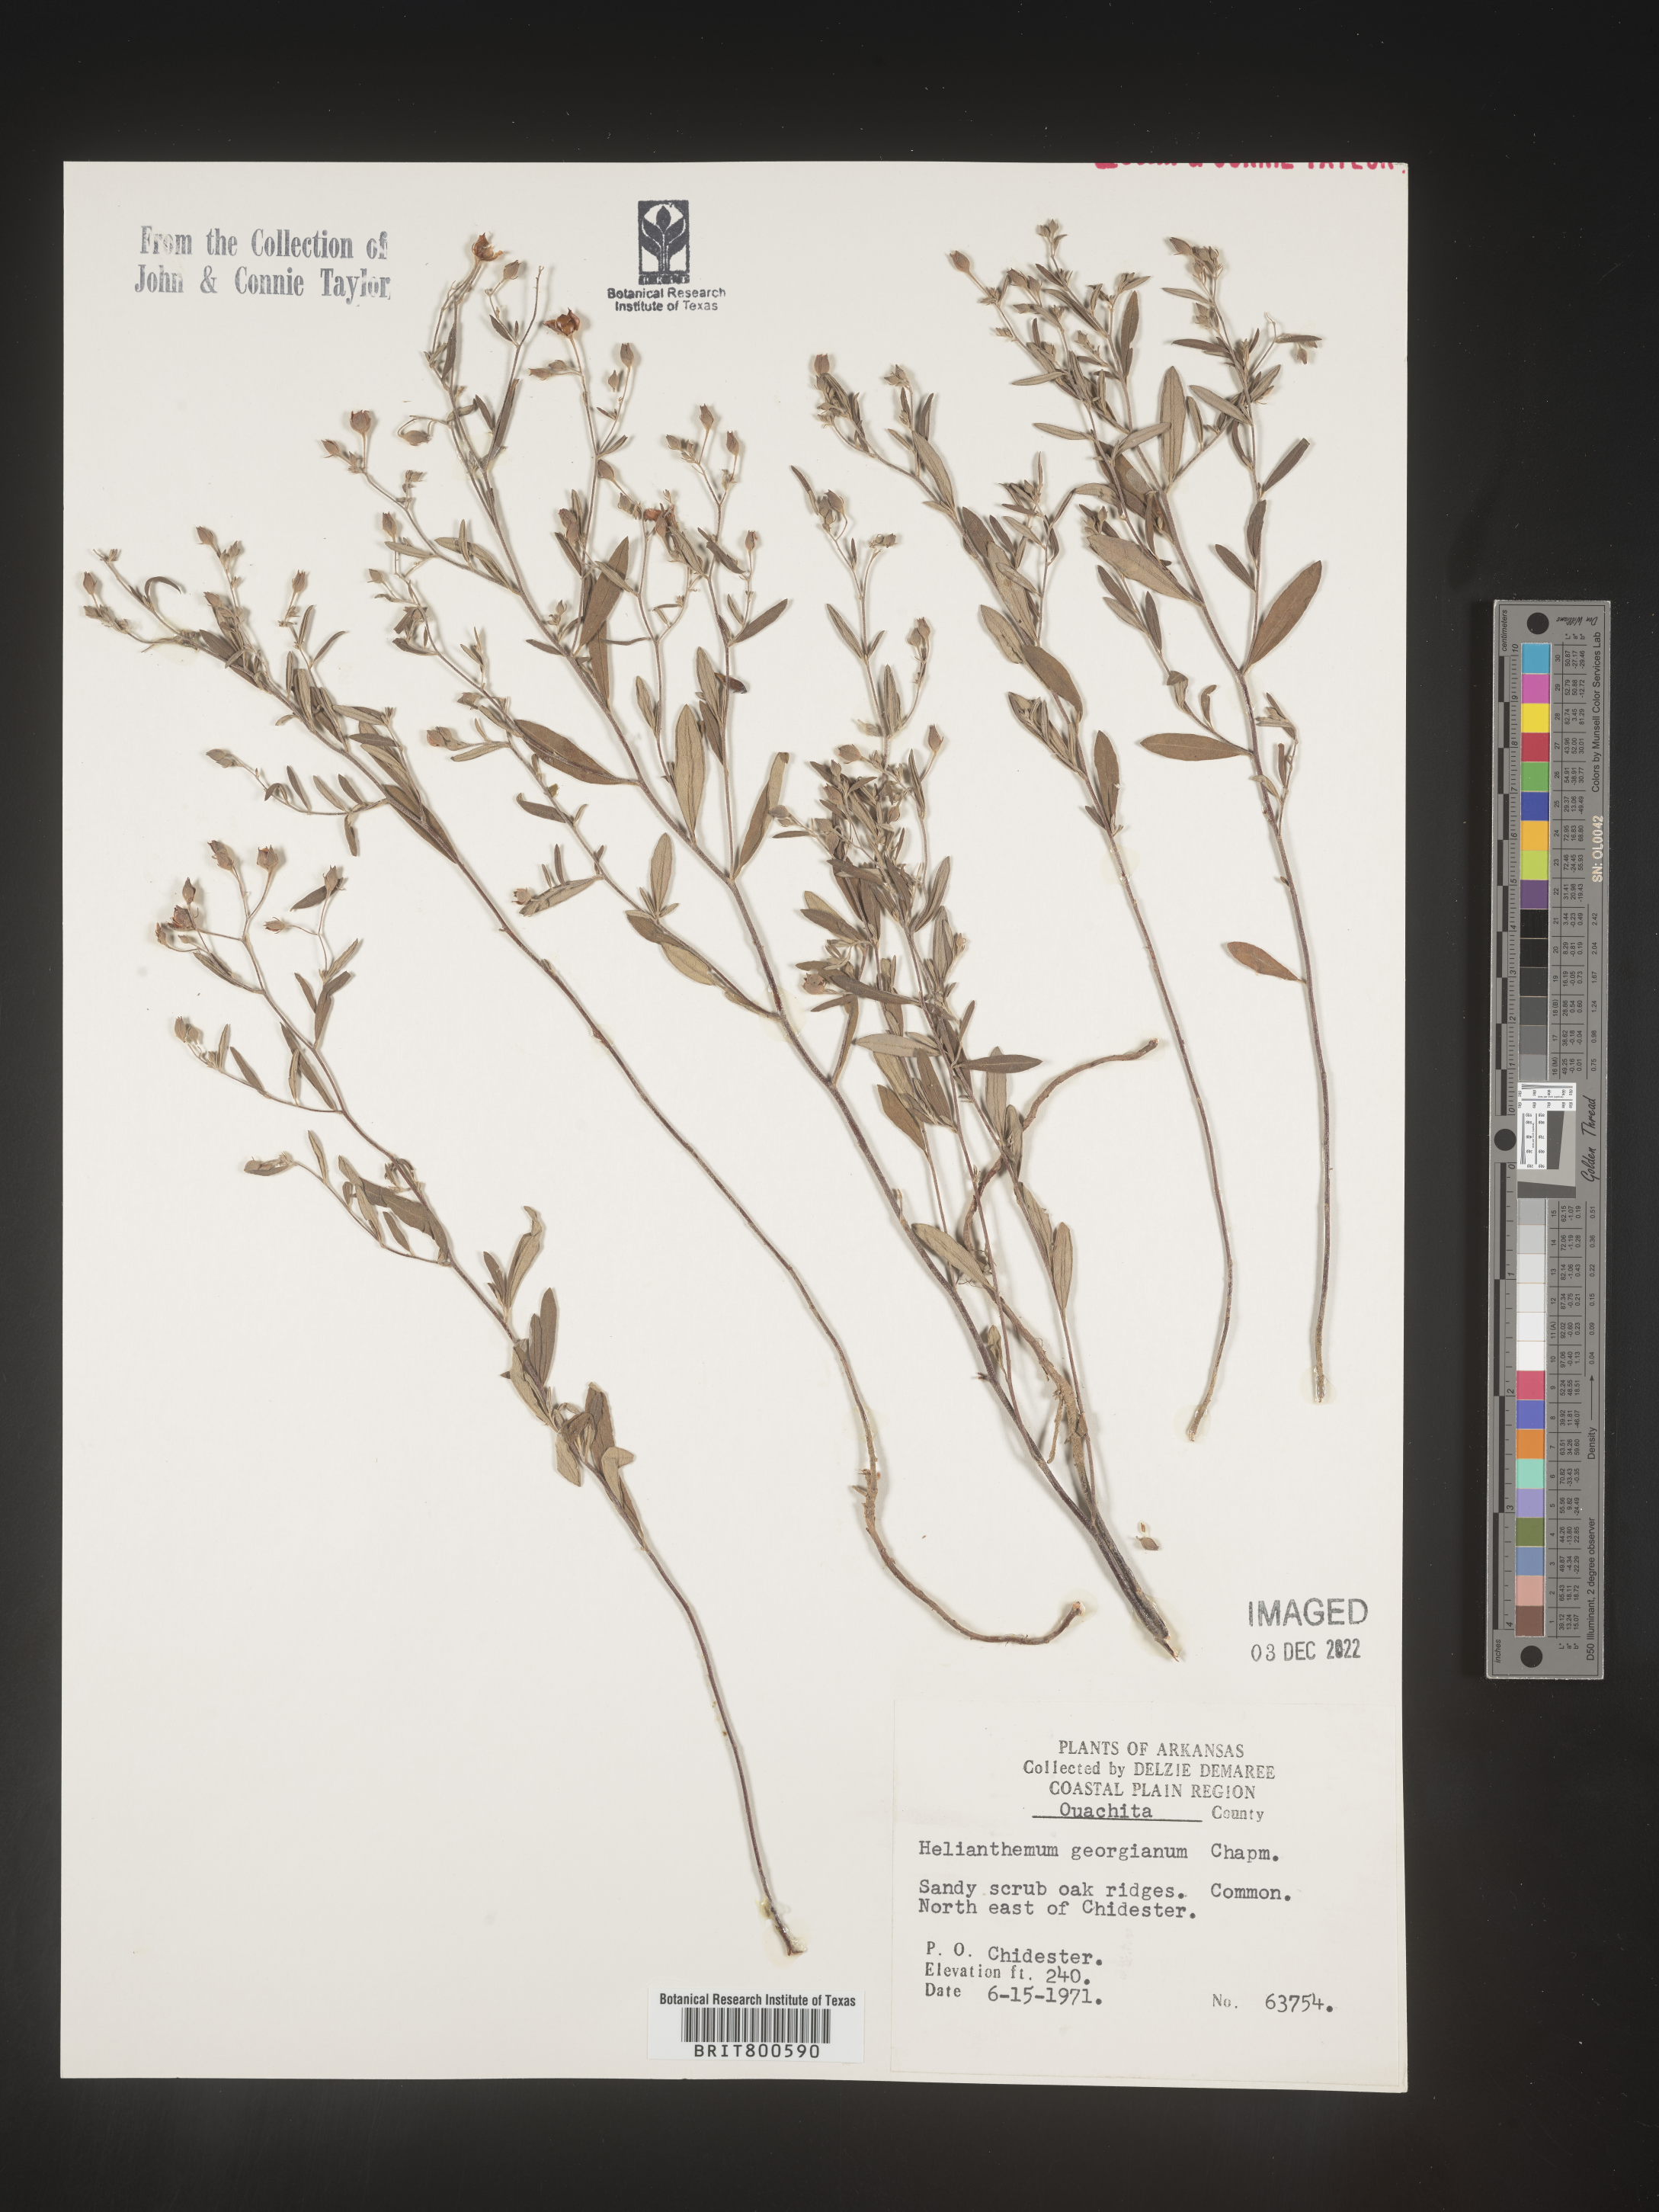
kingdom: Plantae
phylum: Tracheophyta
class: Magnoliopsida
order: Malvales
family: Cistaceae
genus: Crocanthemum
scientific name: Crocanthemum georgianum
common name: Georgia frostweed
